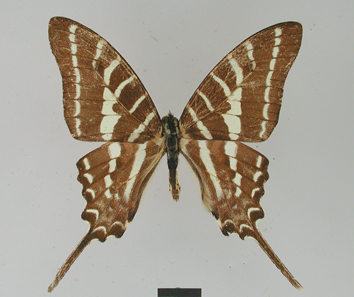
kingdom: Animalia
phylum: Arthropoda
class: Insecta
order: Lepidoptera
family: Papilionidae
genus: Graphium
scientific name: Graphium aristeus
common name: Chain swordtail
